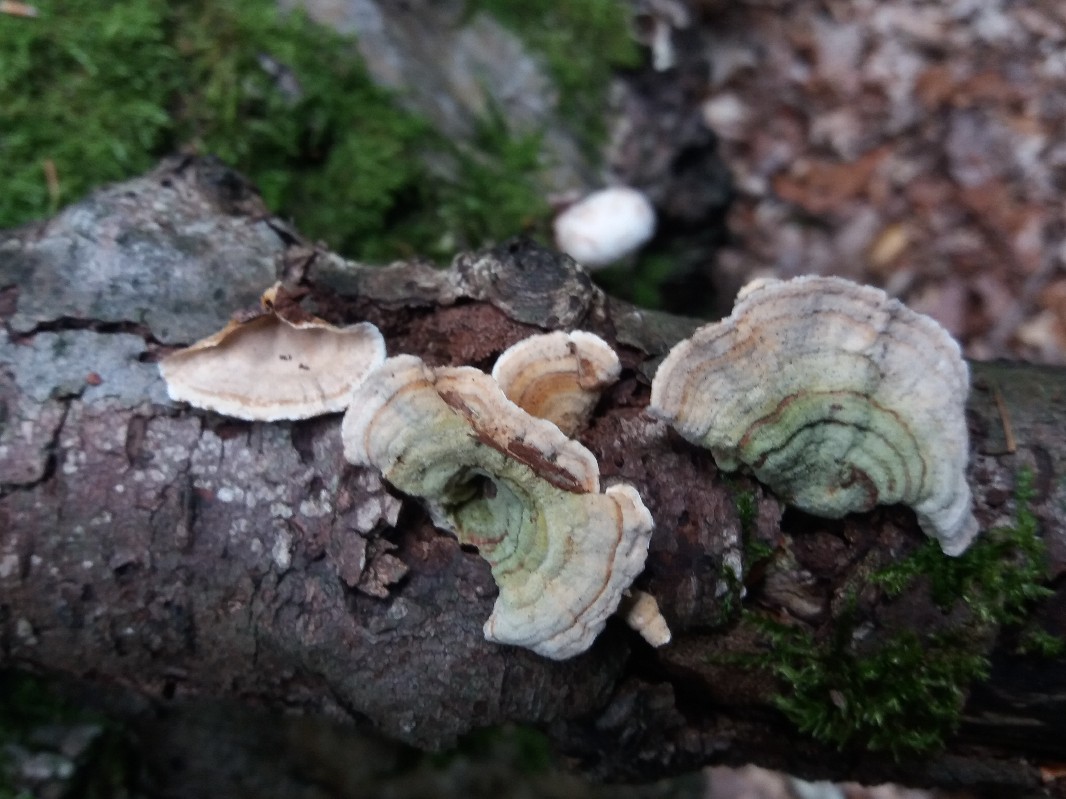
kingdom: Fungi
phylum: Basidiomycota
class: Agaricomycetes
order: Russulales
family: Stereaceae
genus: Stereum
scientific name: Stereum subtomentosum
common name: smuk lædersvamp
